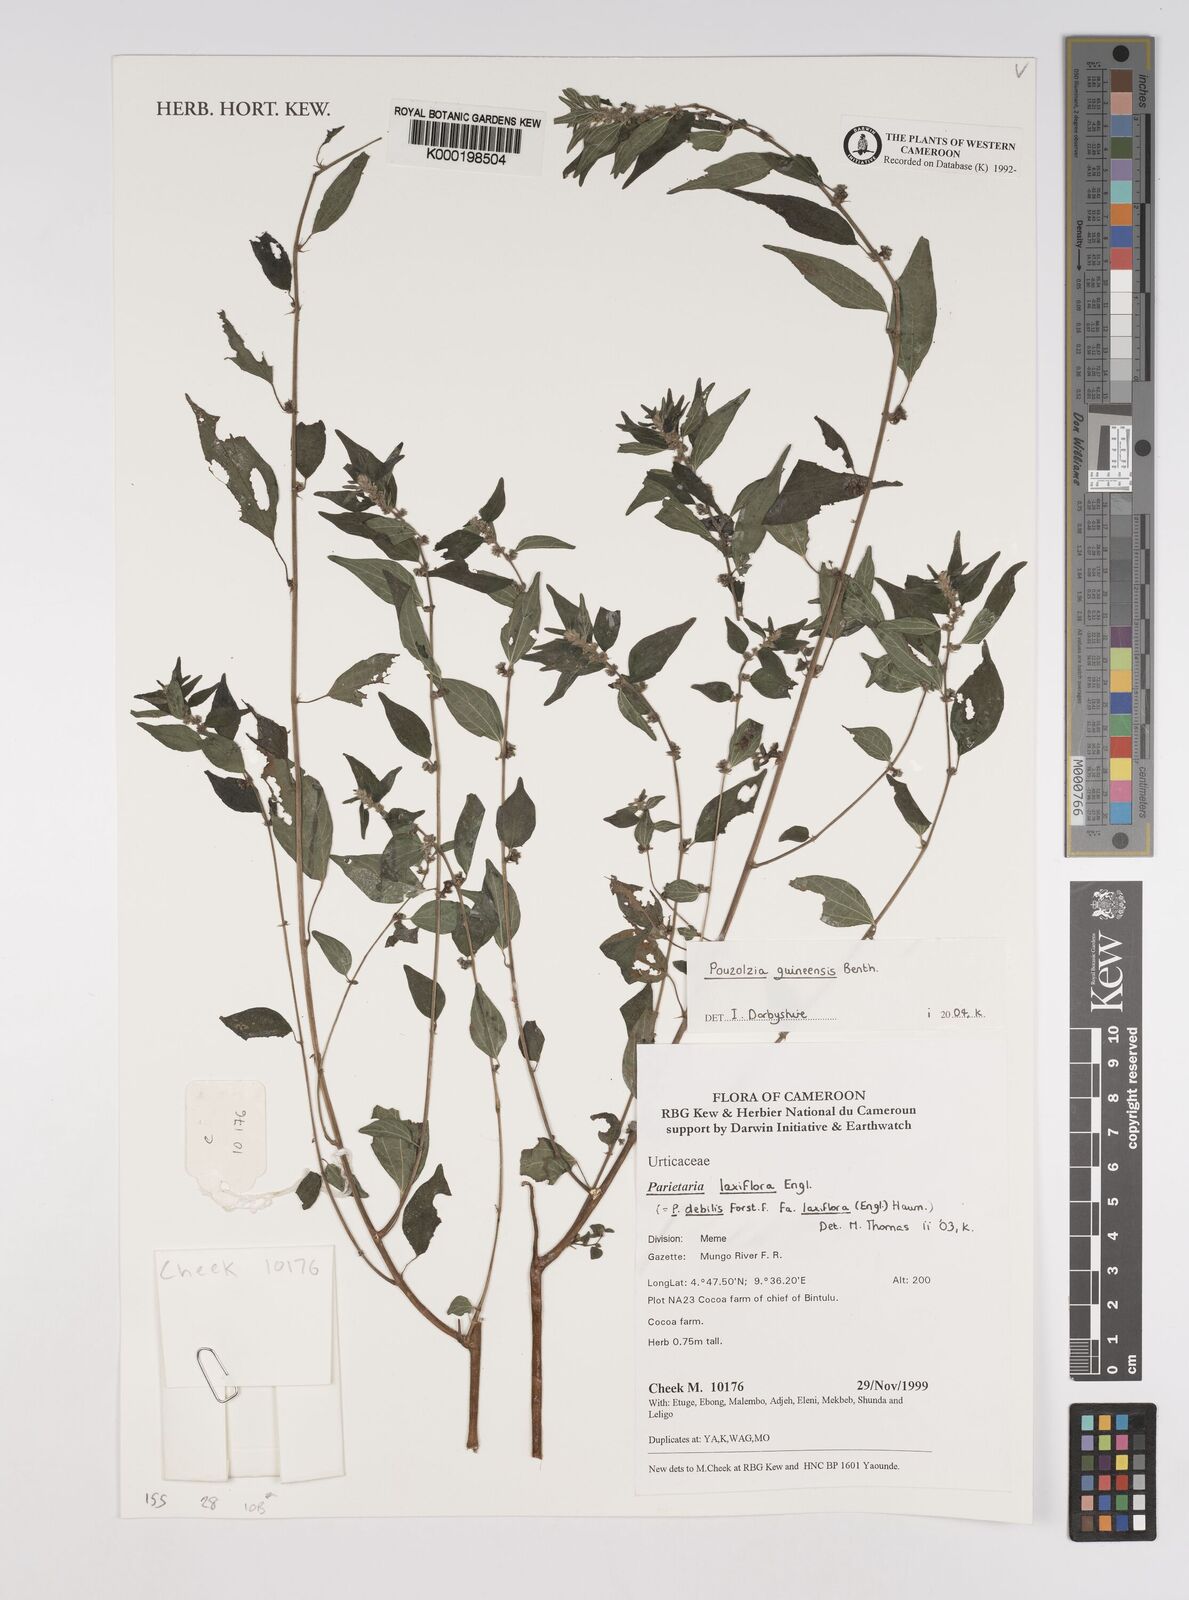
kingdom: Plantae
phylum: Tracheophyta
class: Magnoliopsida
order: Rosales
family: Urticaceae
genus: Pouzolzia
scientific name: Pouzolzia guineensis
